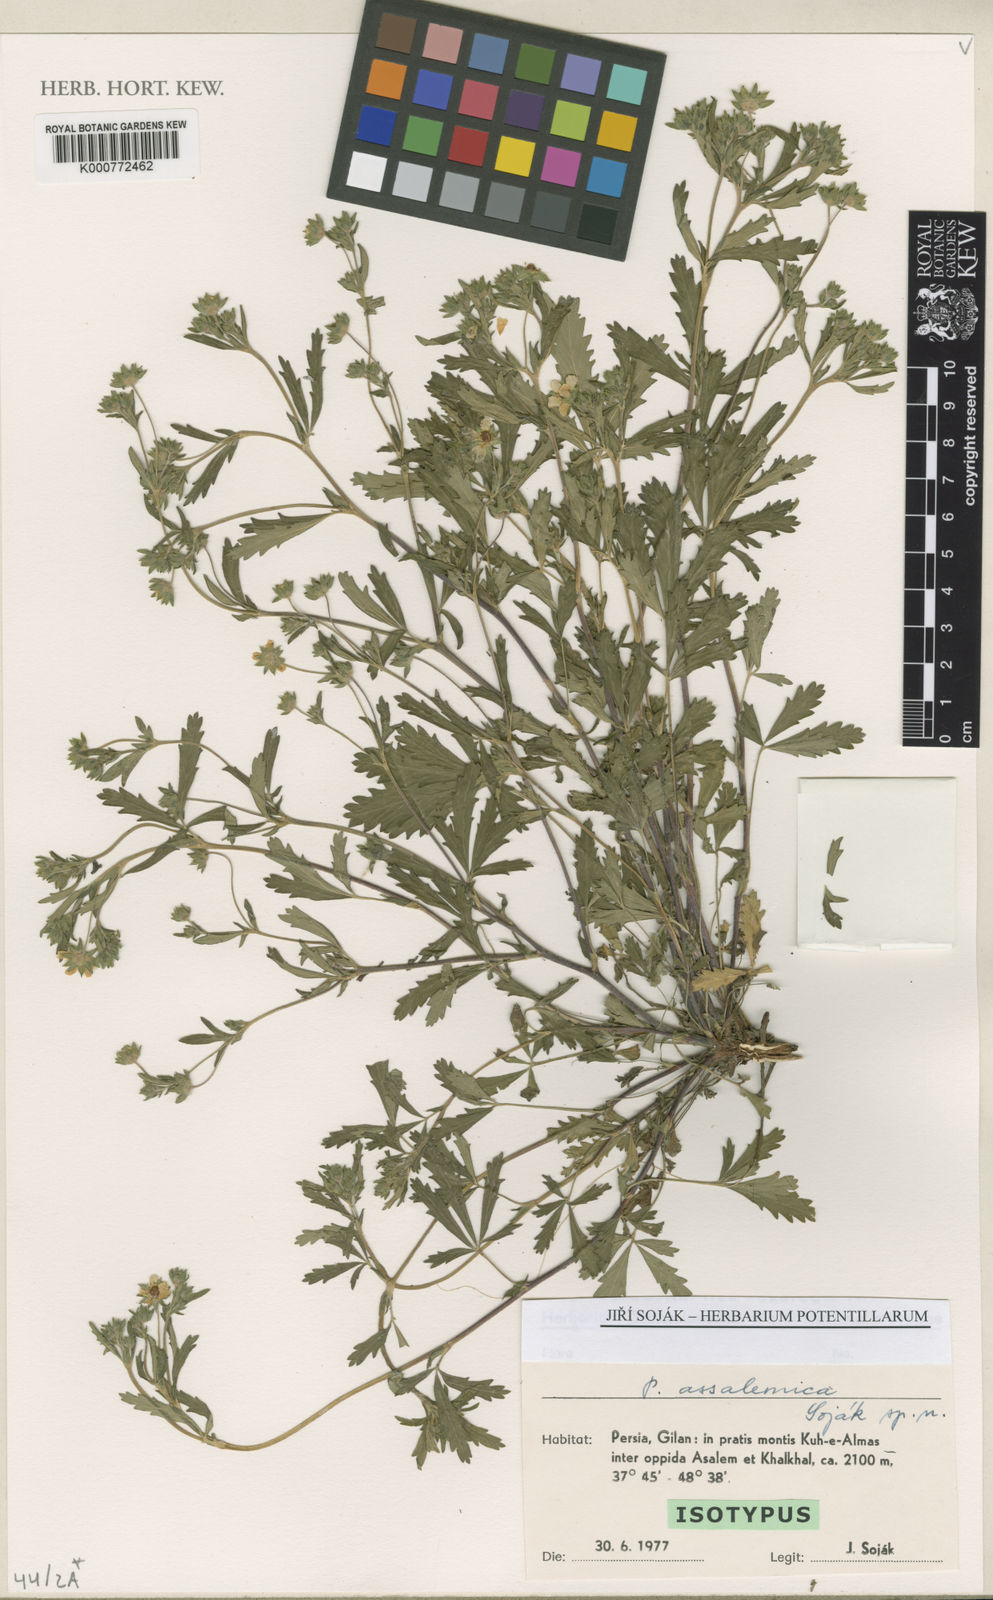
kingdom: Plantae
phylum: Tracheophyta
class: Magnoliopsida
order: Rosales
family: Rosaceae
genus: Potentilla
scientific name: Potentilla
